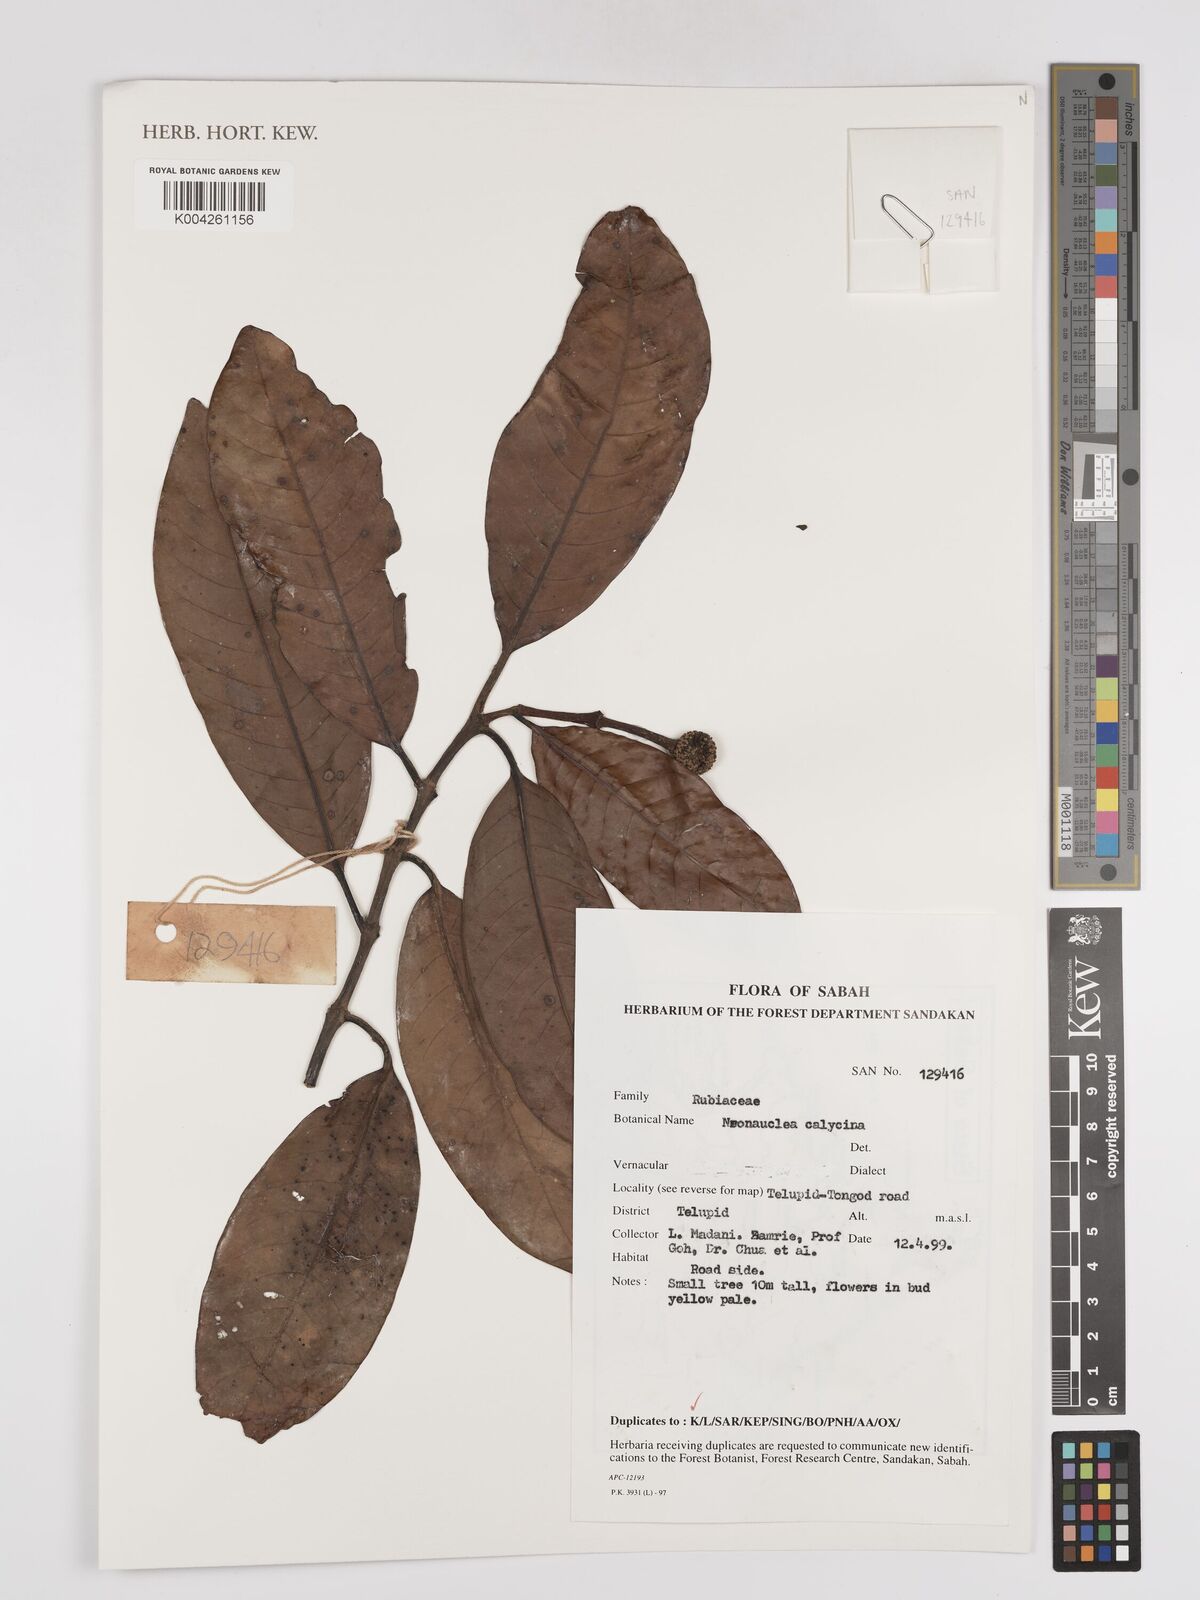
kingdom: Plantae
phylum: Tracheophyta
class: Magnoliopsida
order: Gentianales
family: Rubiaceae
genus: Neonauclea
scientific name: Neonauclea
